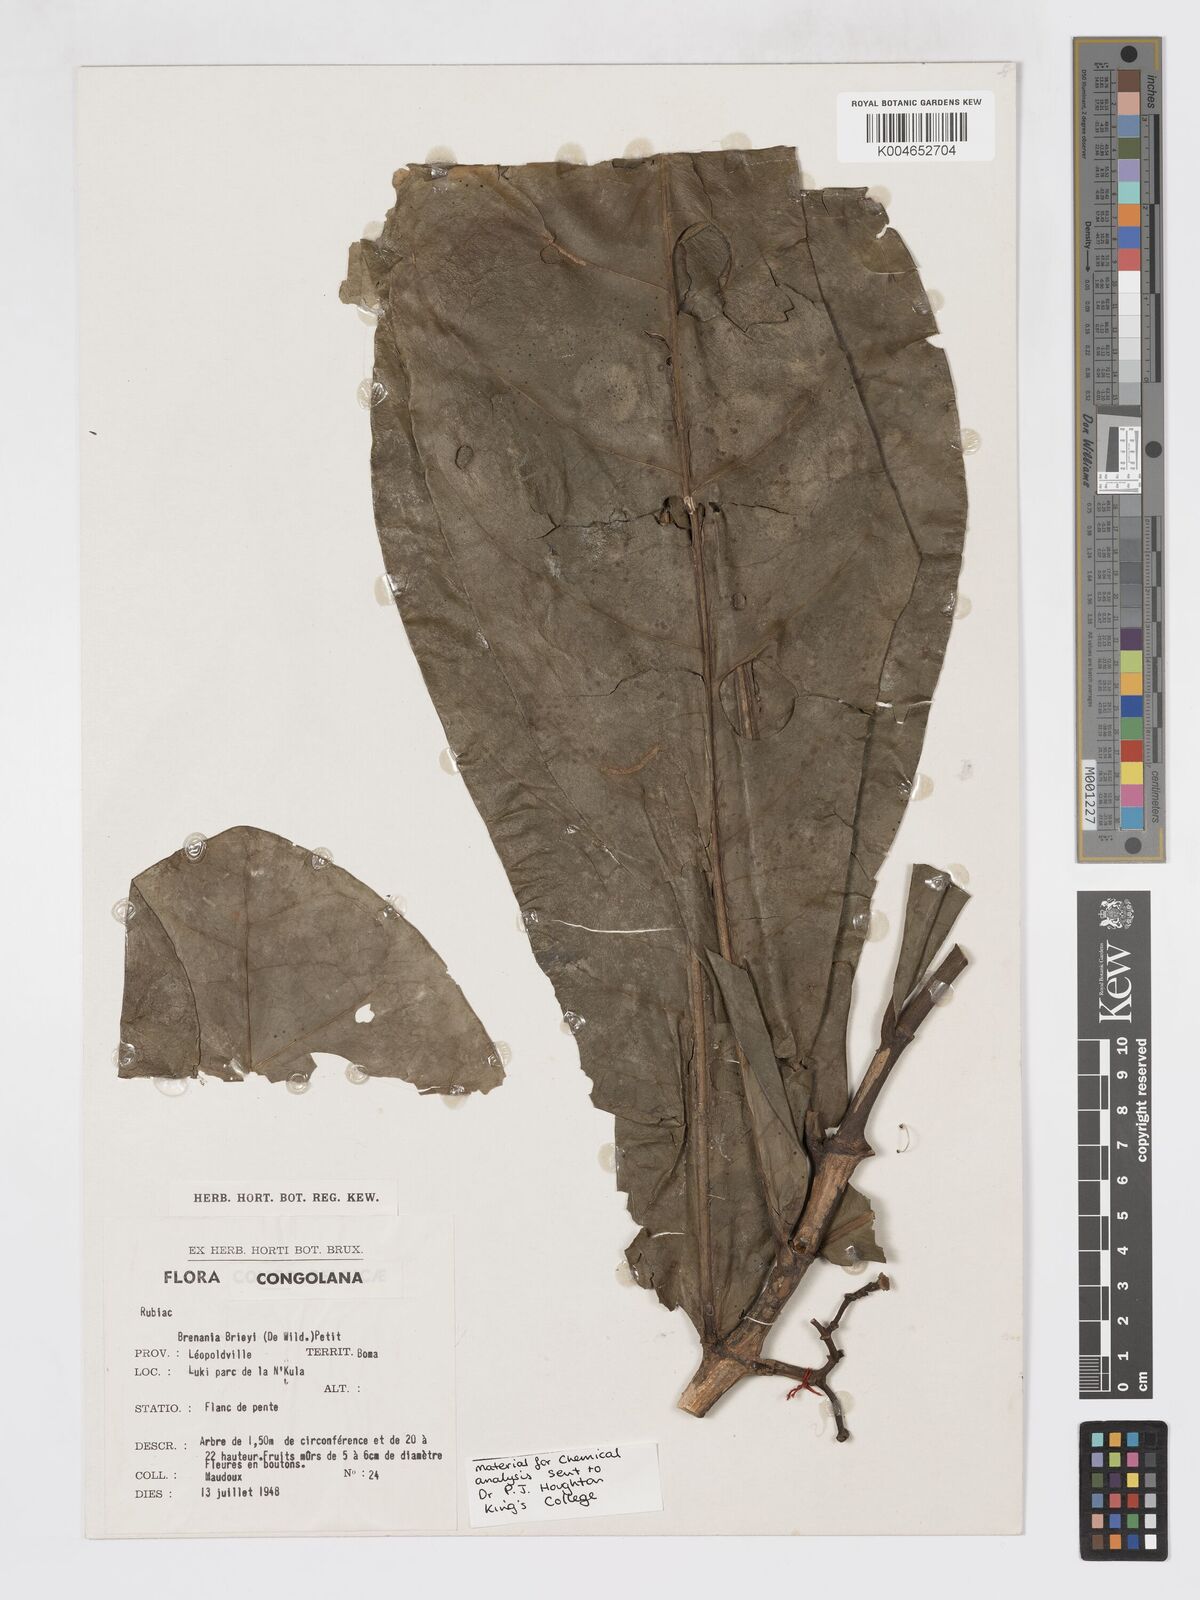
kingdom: Plantae
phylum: Tracheophyta
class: Magnoliopsida
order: Gentianales
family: Rubiaceae
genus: Brenania
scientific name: Brenania brieyi
